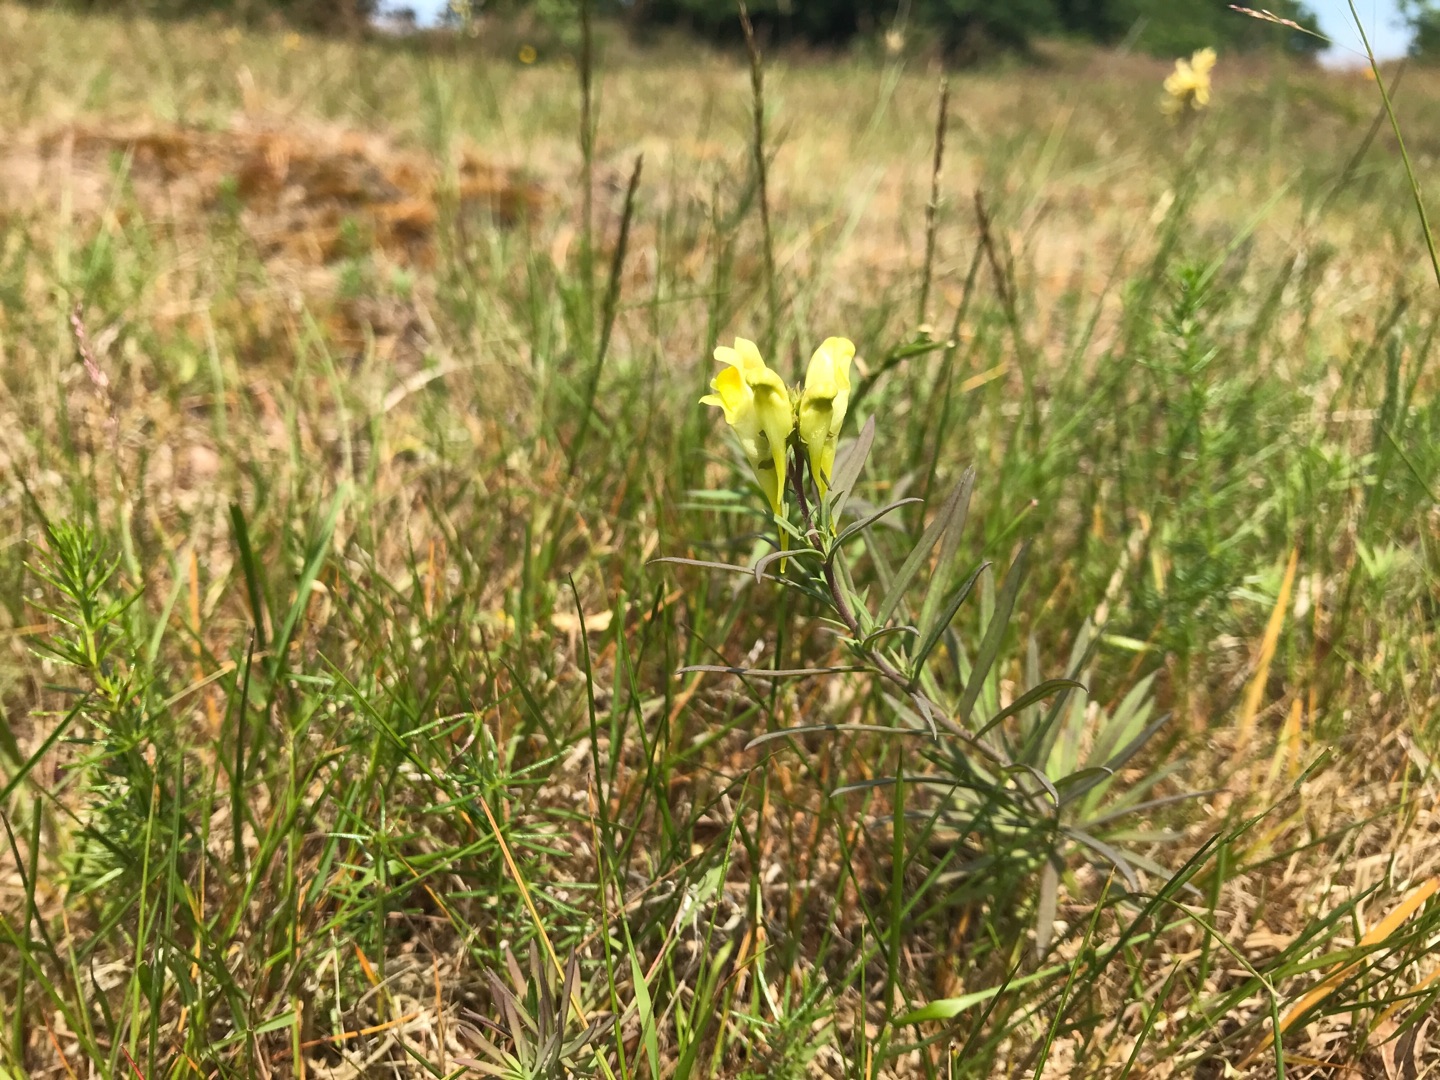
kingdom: Plantae
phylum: Tracheophyta
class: Magnoliopsida
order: Lamiales
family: Plantaginaceae
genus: Linaria
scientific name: Linaria vulgaris
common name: Almindelig torskemund
